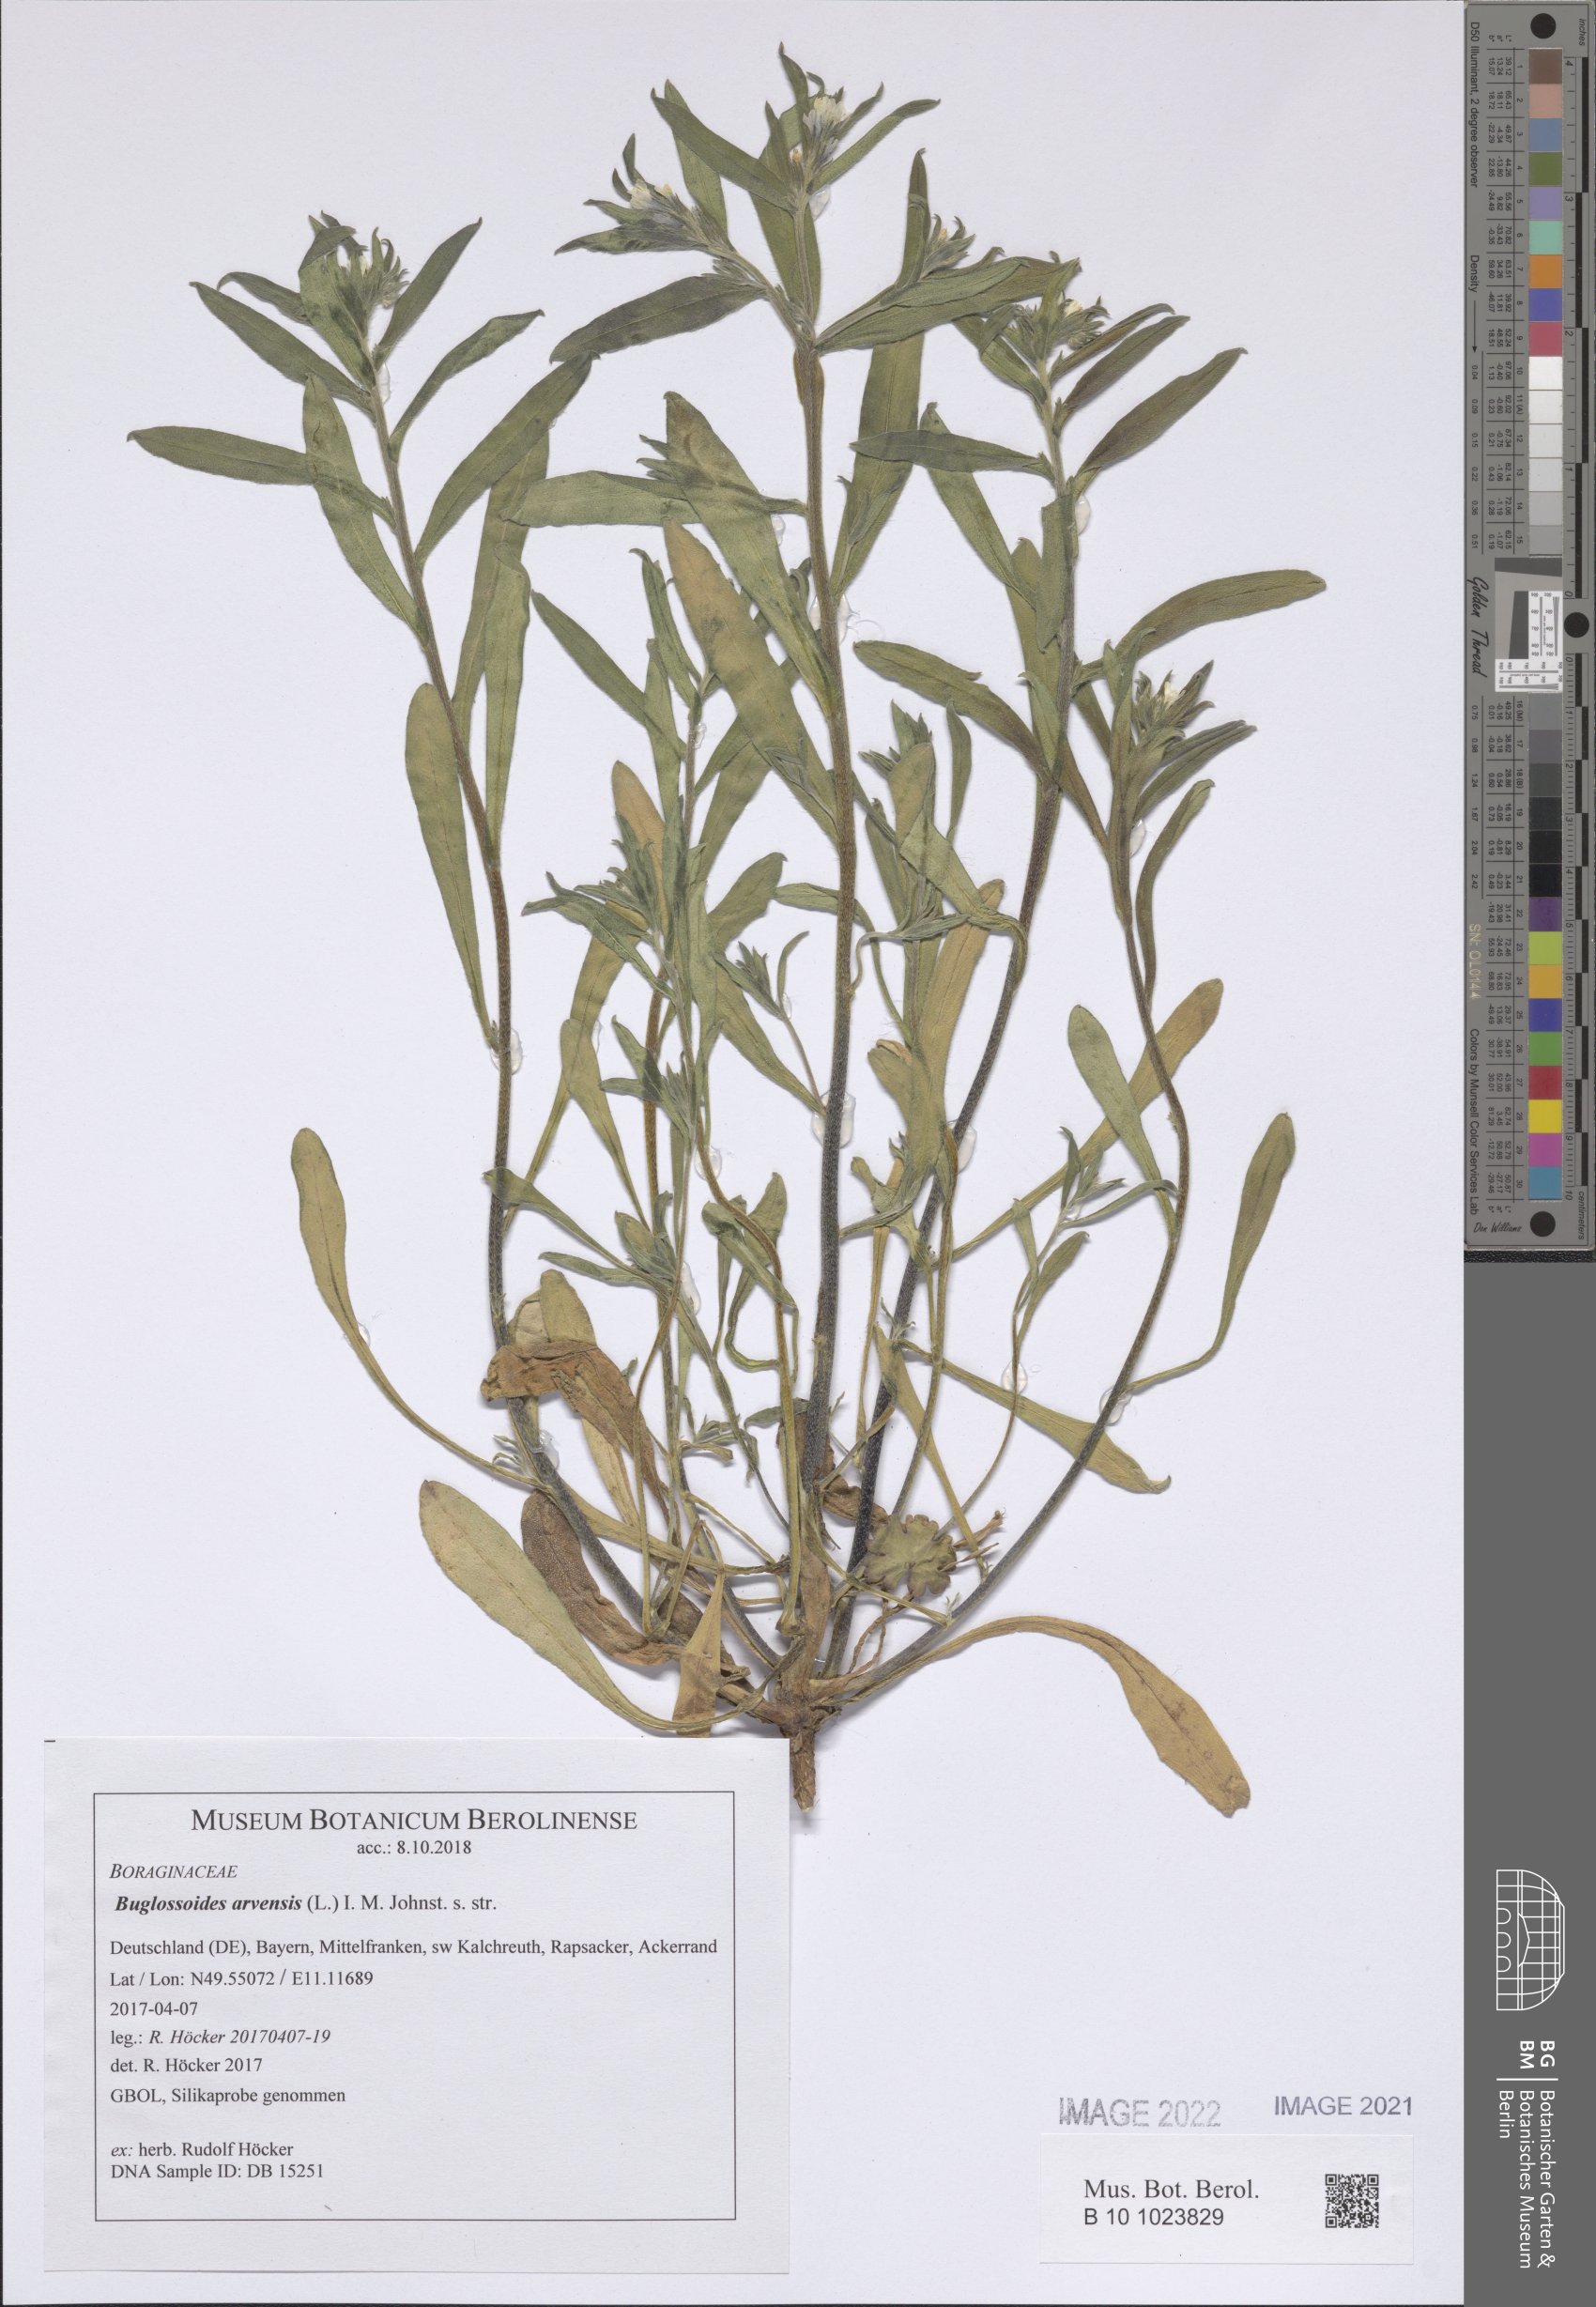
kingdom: Plantae
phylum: Tracheophyta
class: Magnoliopsida
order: Boraginales
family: Boraginaceae
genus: Buglossoides
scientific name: Buglossoides arvensis
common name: Corn gromwell
